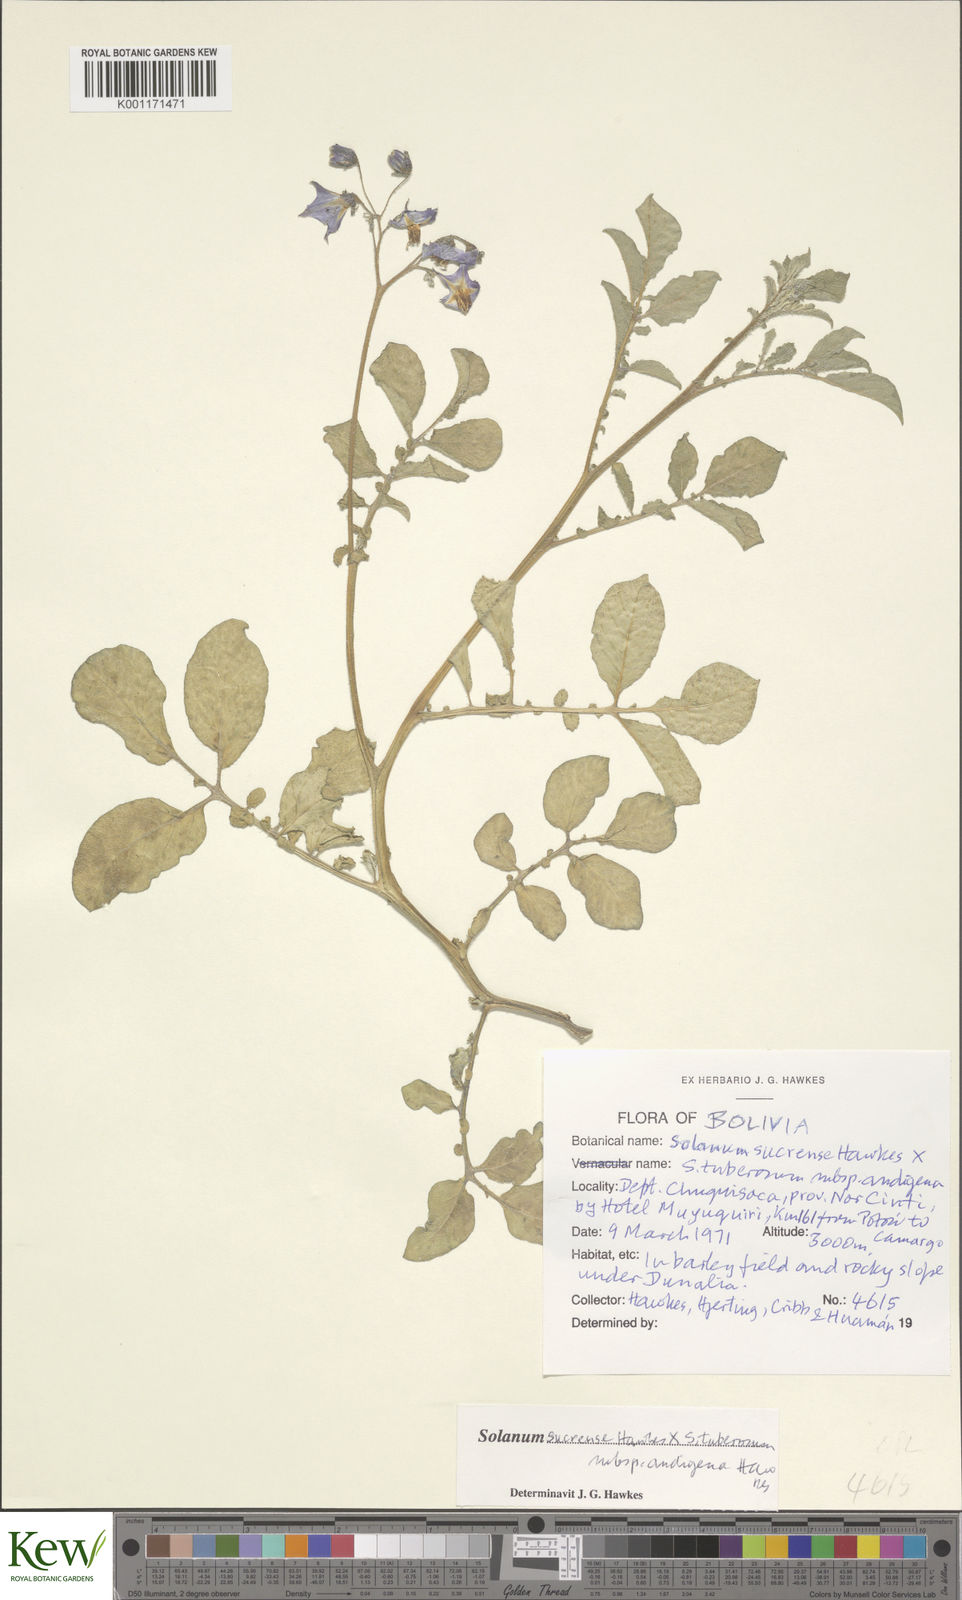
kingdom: Plantae
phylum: Tracheophyta
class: Magnoliopsida
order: Solanales
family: Solanaceae
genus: Solanum
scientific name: Solanum tuberosum
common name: Potato
